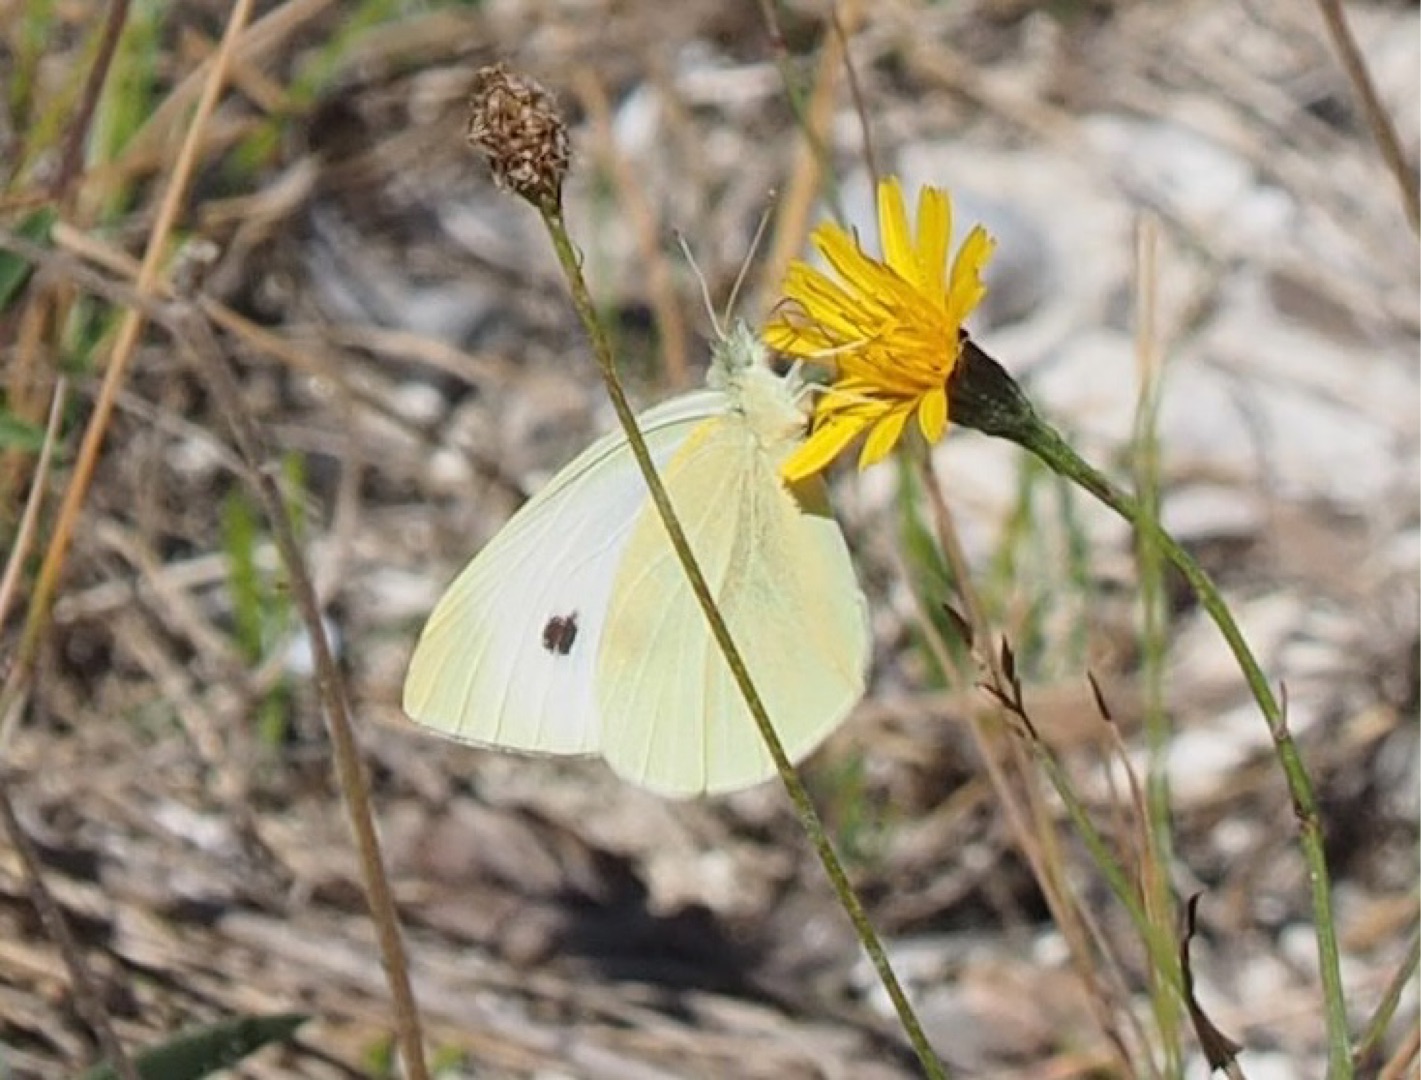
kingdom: Animalia
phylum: Arthropoda
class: Insecta
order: Lepidoptera
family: Pieridae
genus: Pieris
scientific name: Pieris rapae
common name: Lille kålsommerfugl
